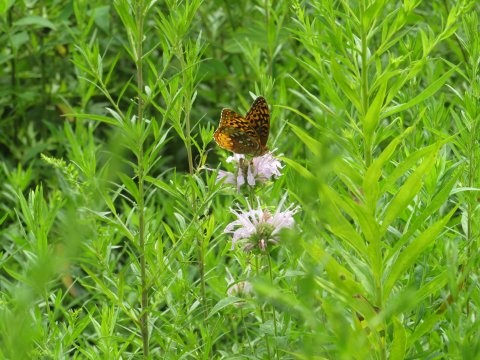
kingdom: Animalia
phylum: Arthropoda
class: Insecta
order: Lepidoptera
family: Nymphalidae
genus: Speyeria
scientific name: Speyeria cybele
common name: Great Spangled Fritillary
